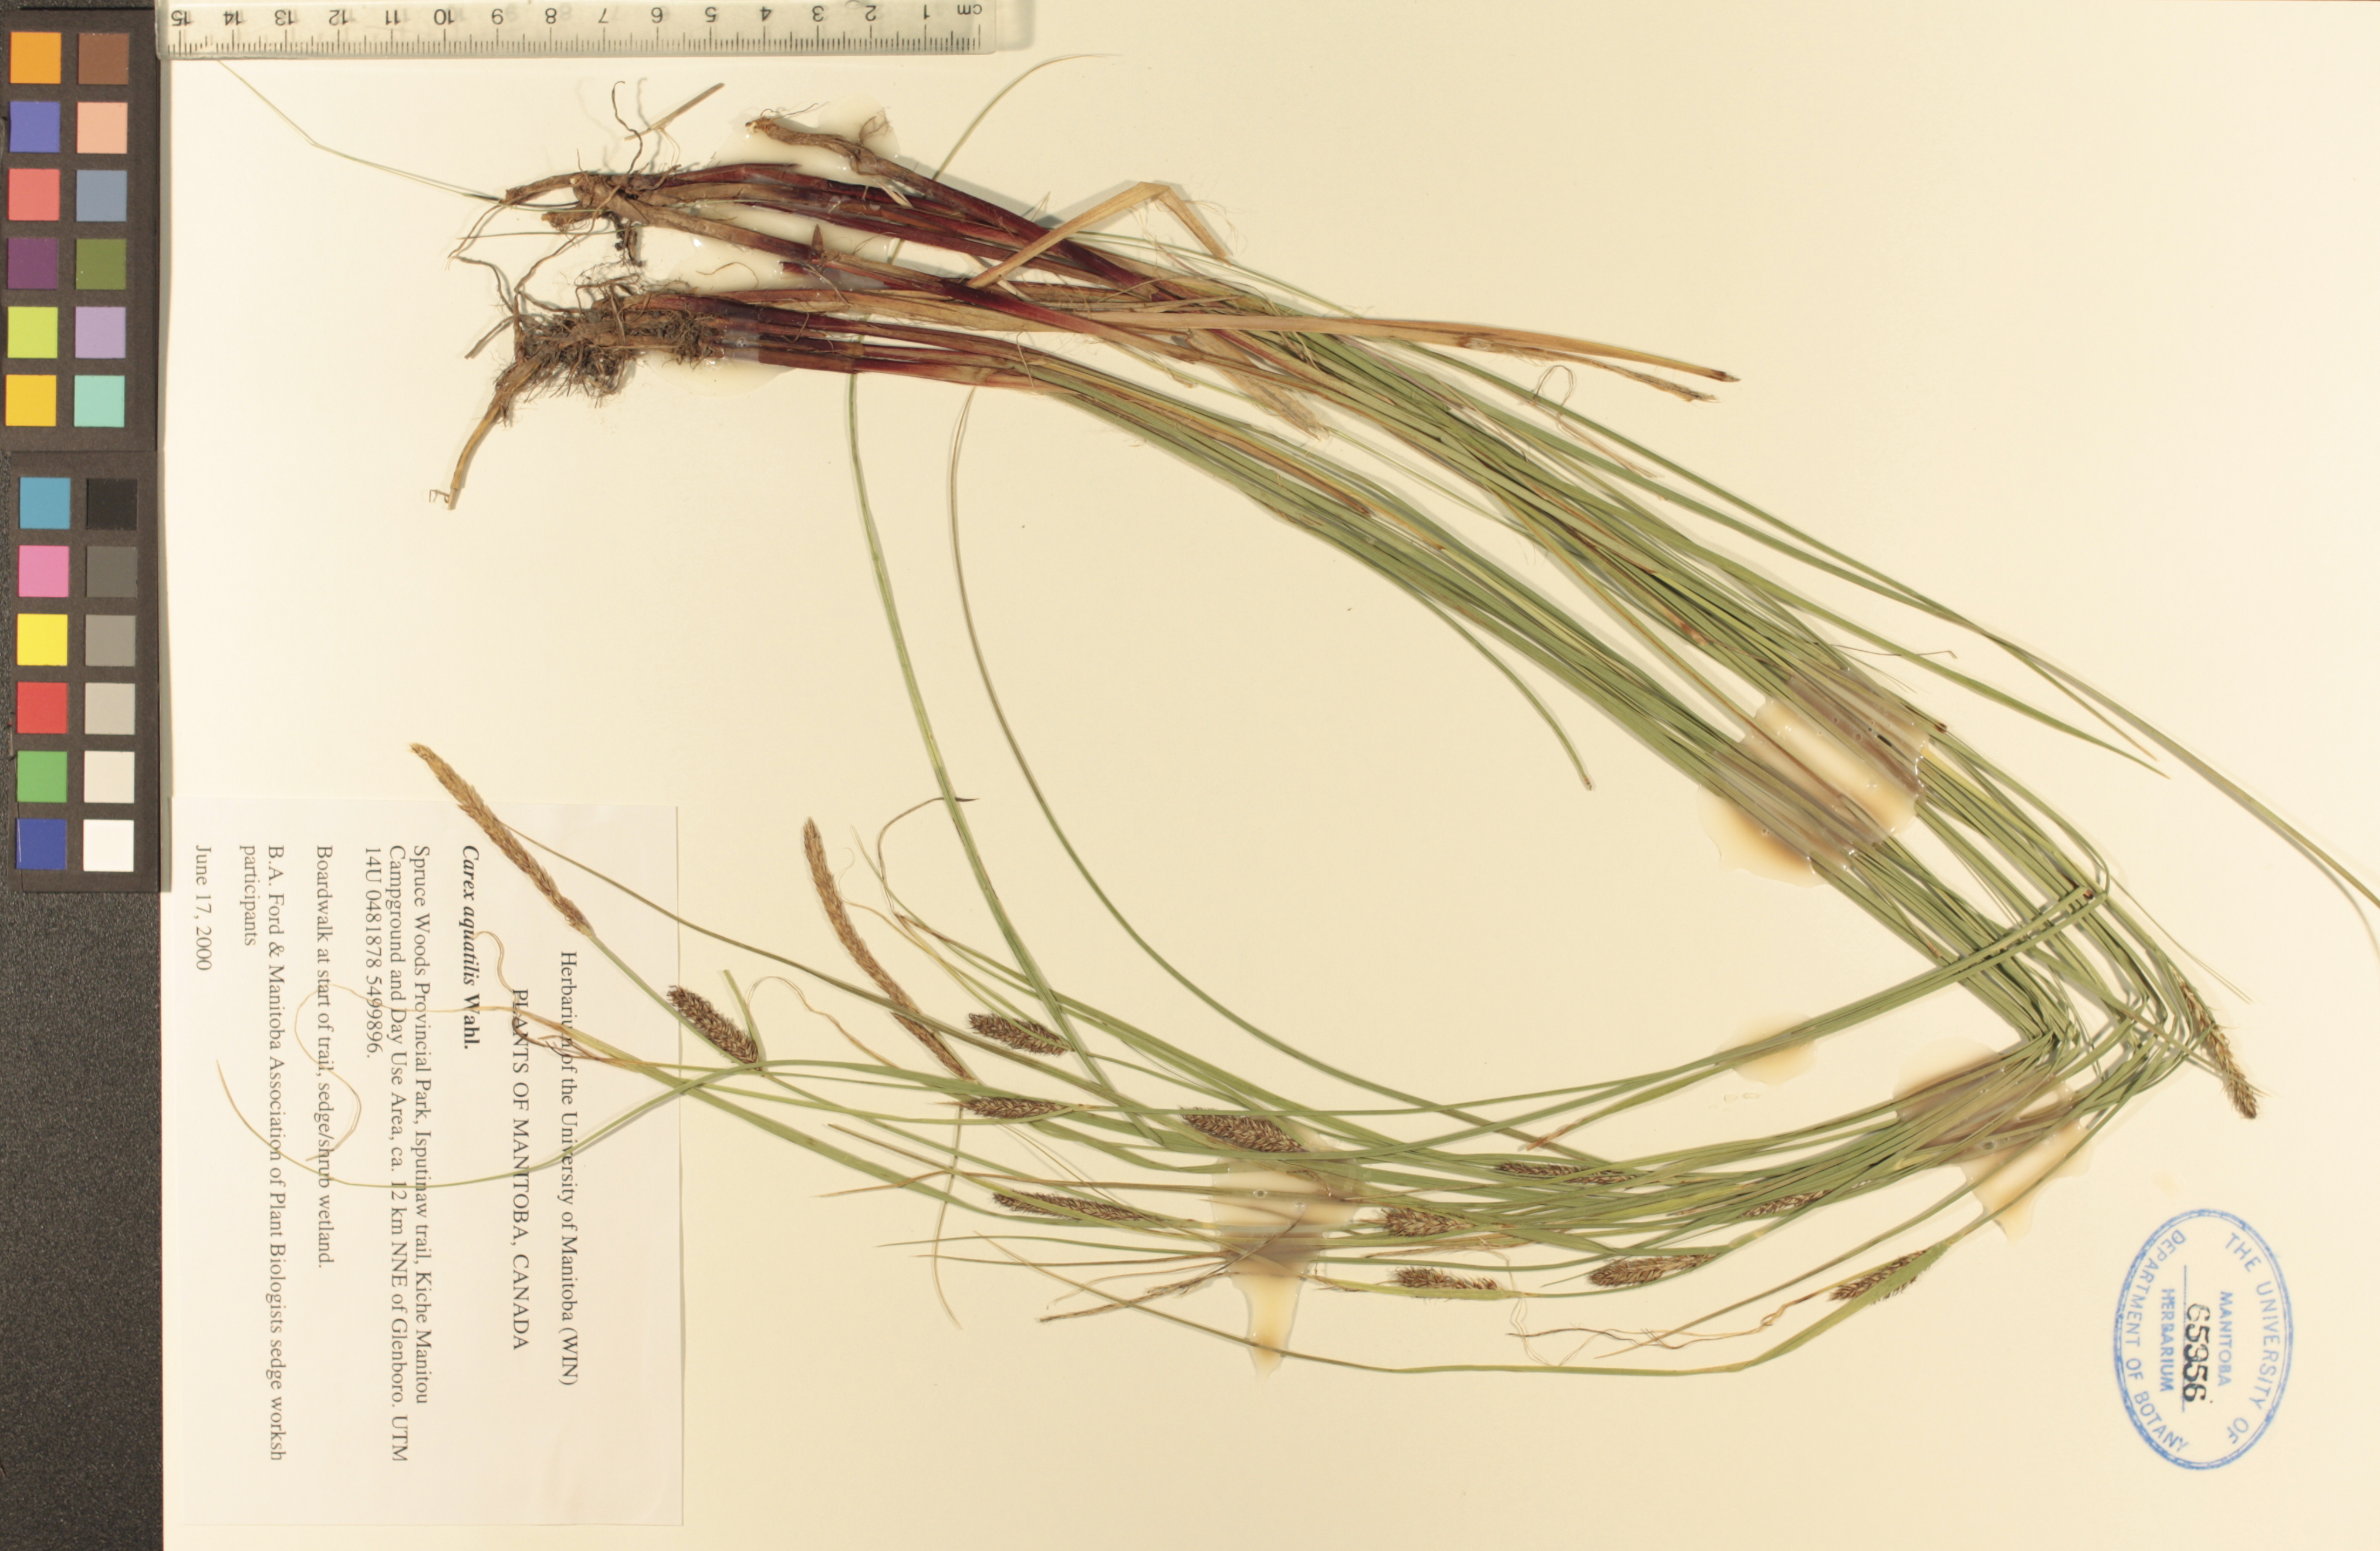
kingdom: Plantae
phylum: Tracheophyta
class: Liliopsida
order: Poales
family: Cyperaceae
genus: Carex
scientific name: Carex aquatilis
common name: Water sedge
